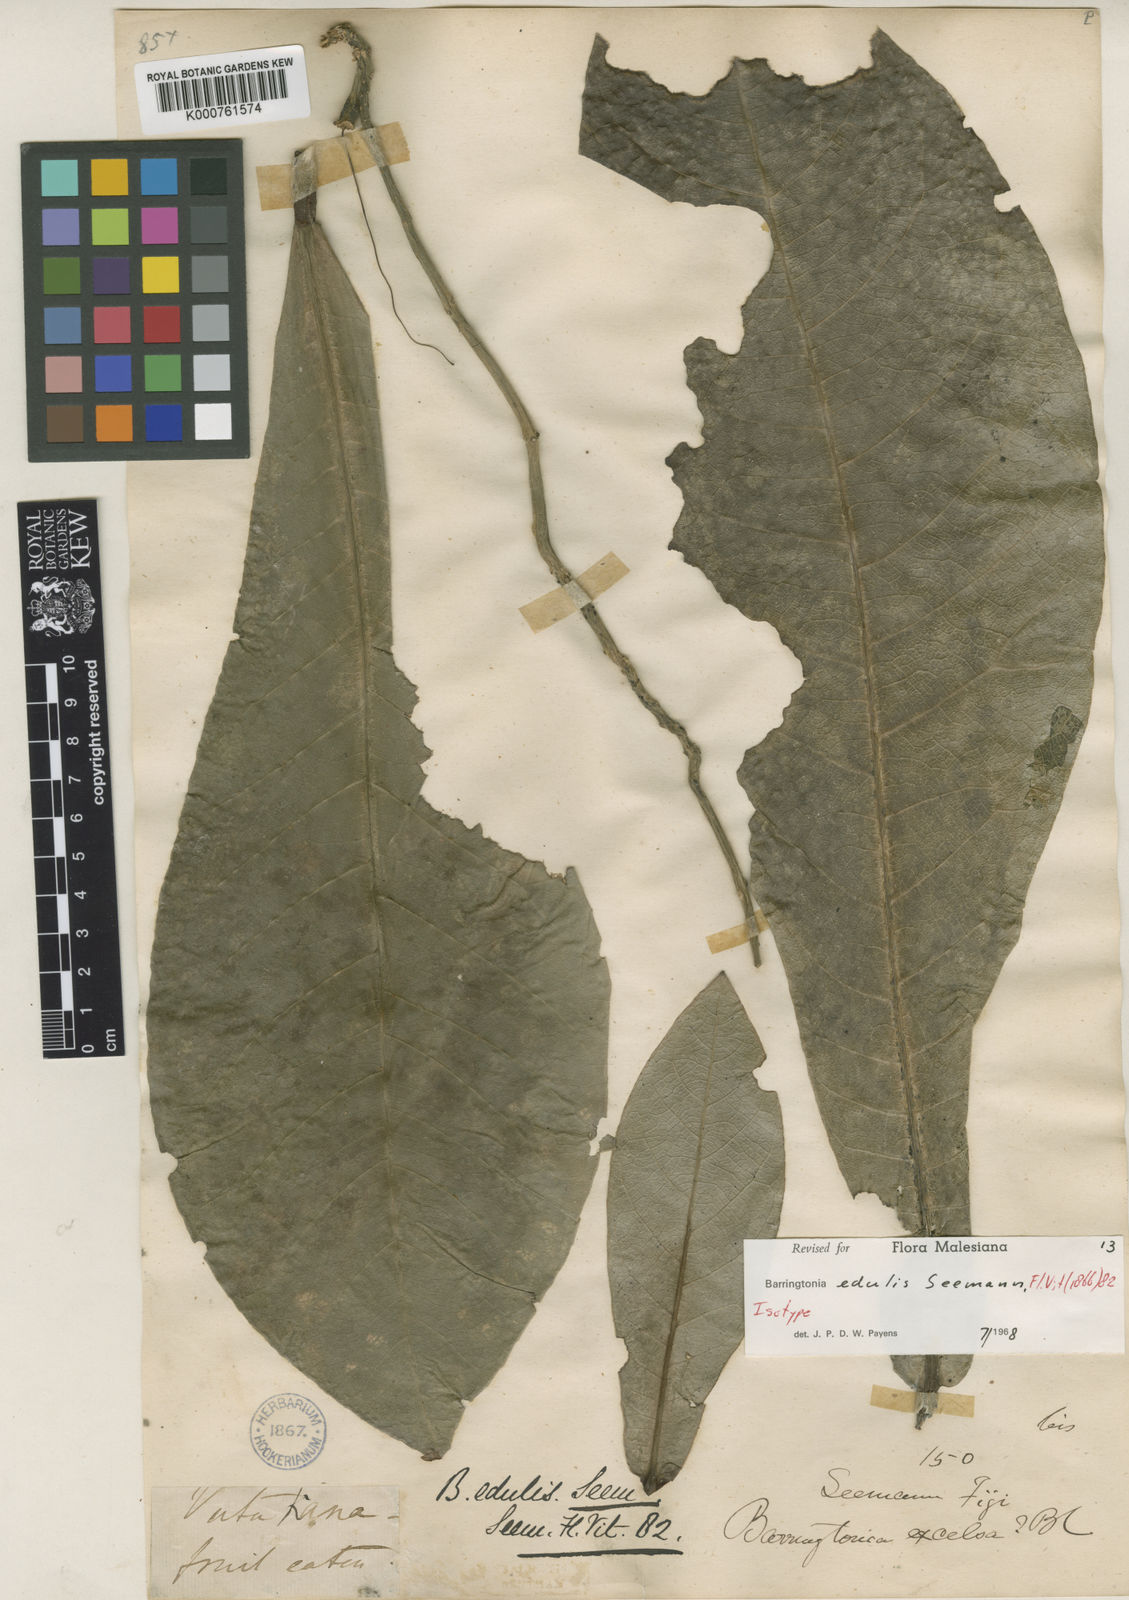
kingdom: Plantae
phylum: Tracheophyta
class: Magnoliopsida
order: Ericales
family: Lecythidaceae
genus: Barringtonia
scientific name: Barringtonia edulis
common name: Cutnut
